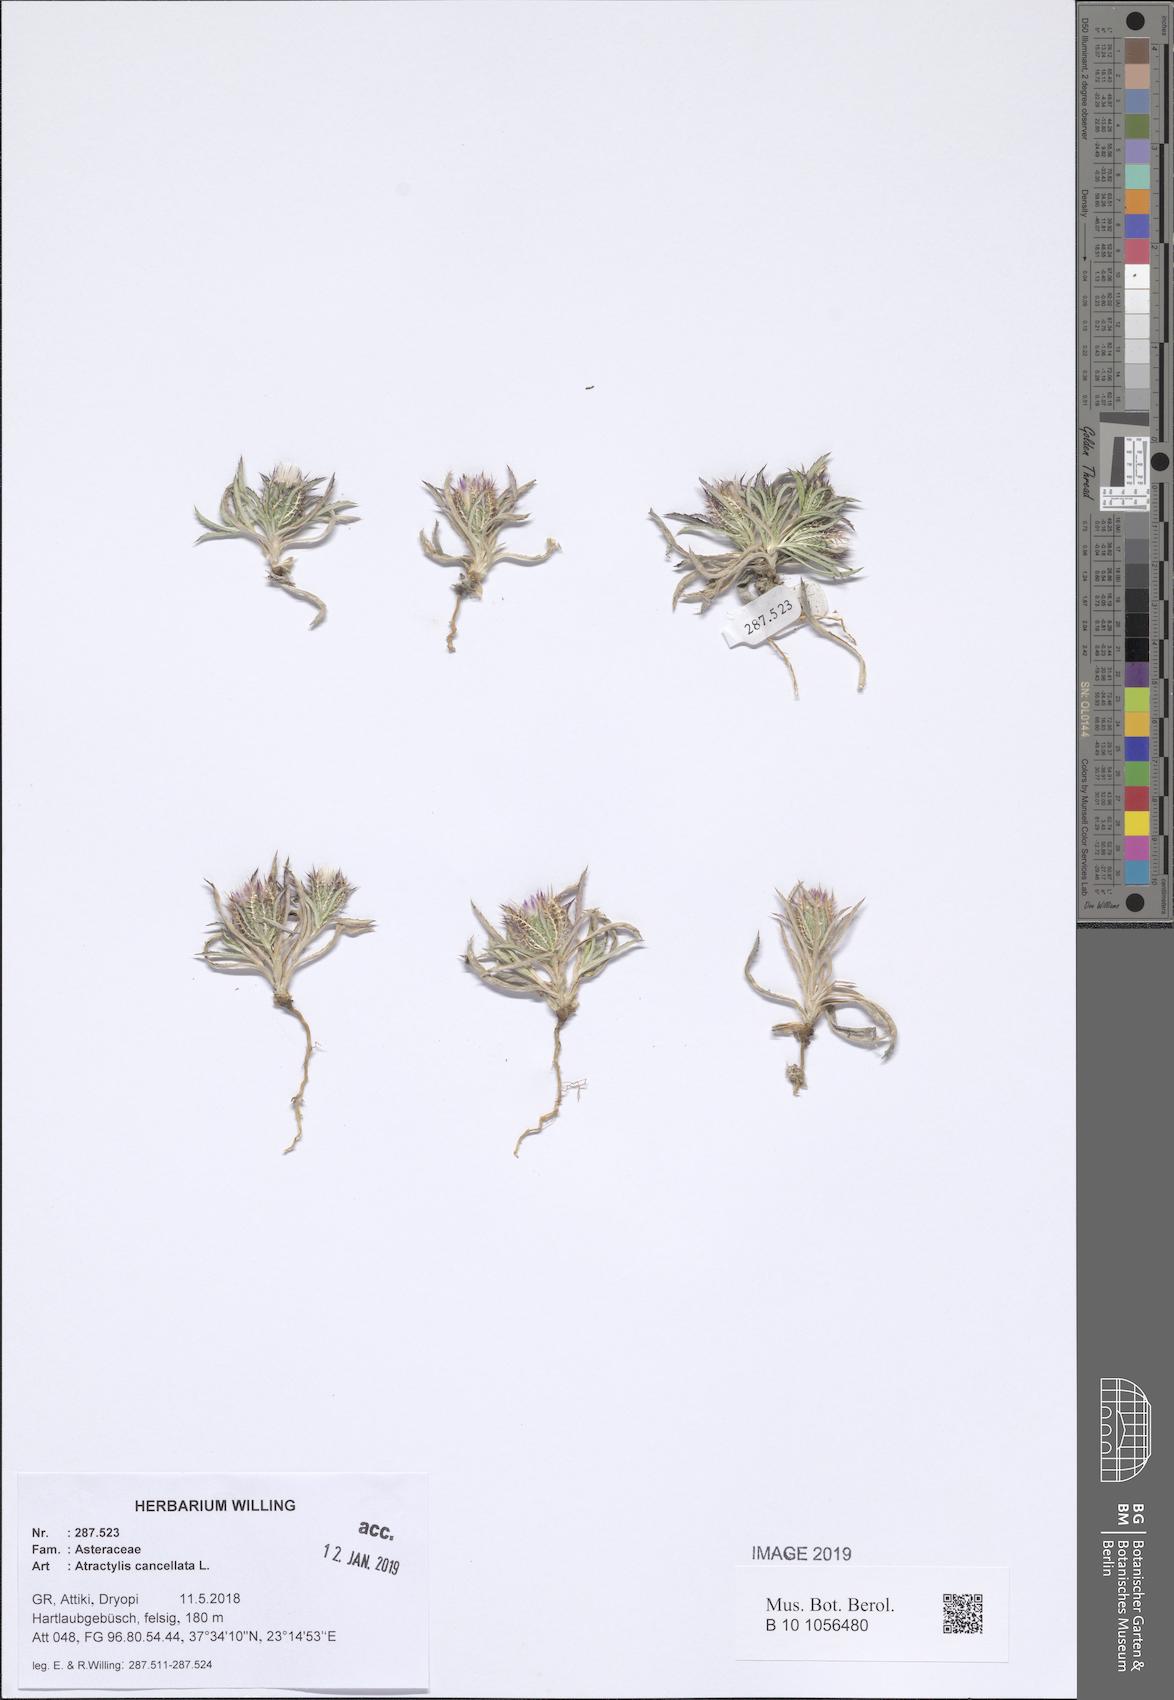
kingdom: Plantae
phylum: Tracheophyta
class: Magnoliopsida
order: Asterales
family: Asteraceae
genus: Atractylis
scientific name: Atractylis cancellata
